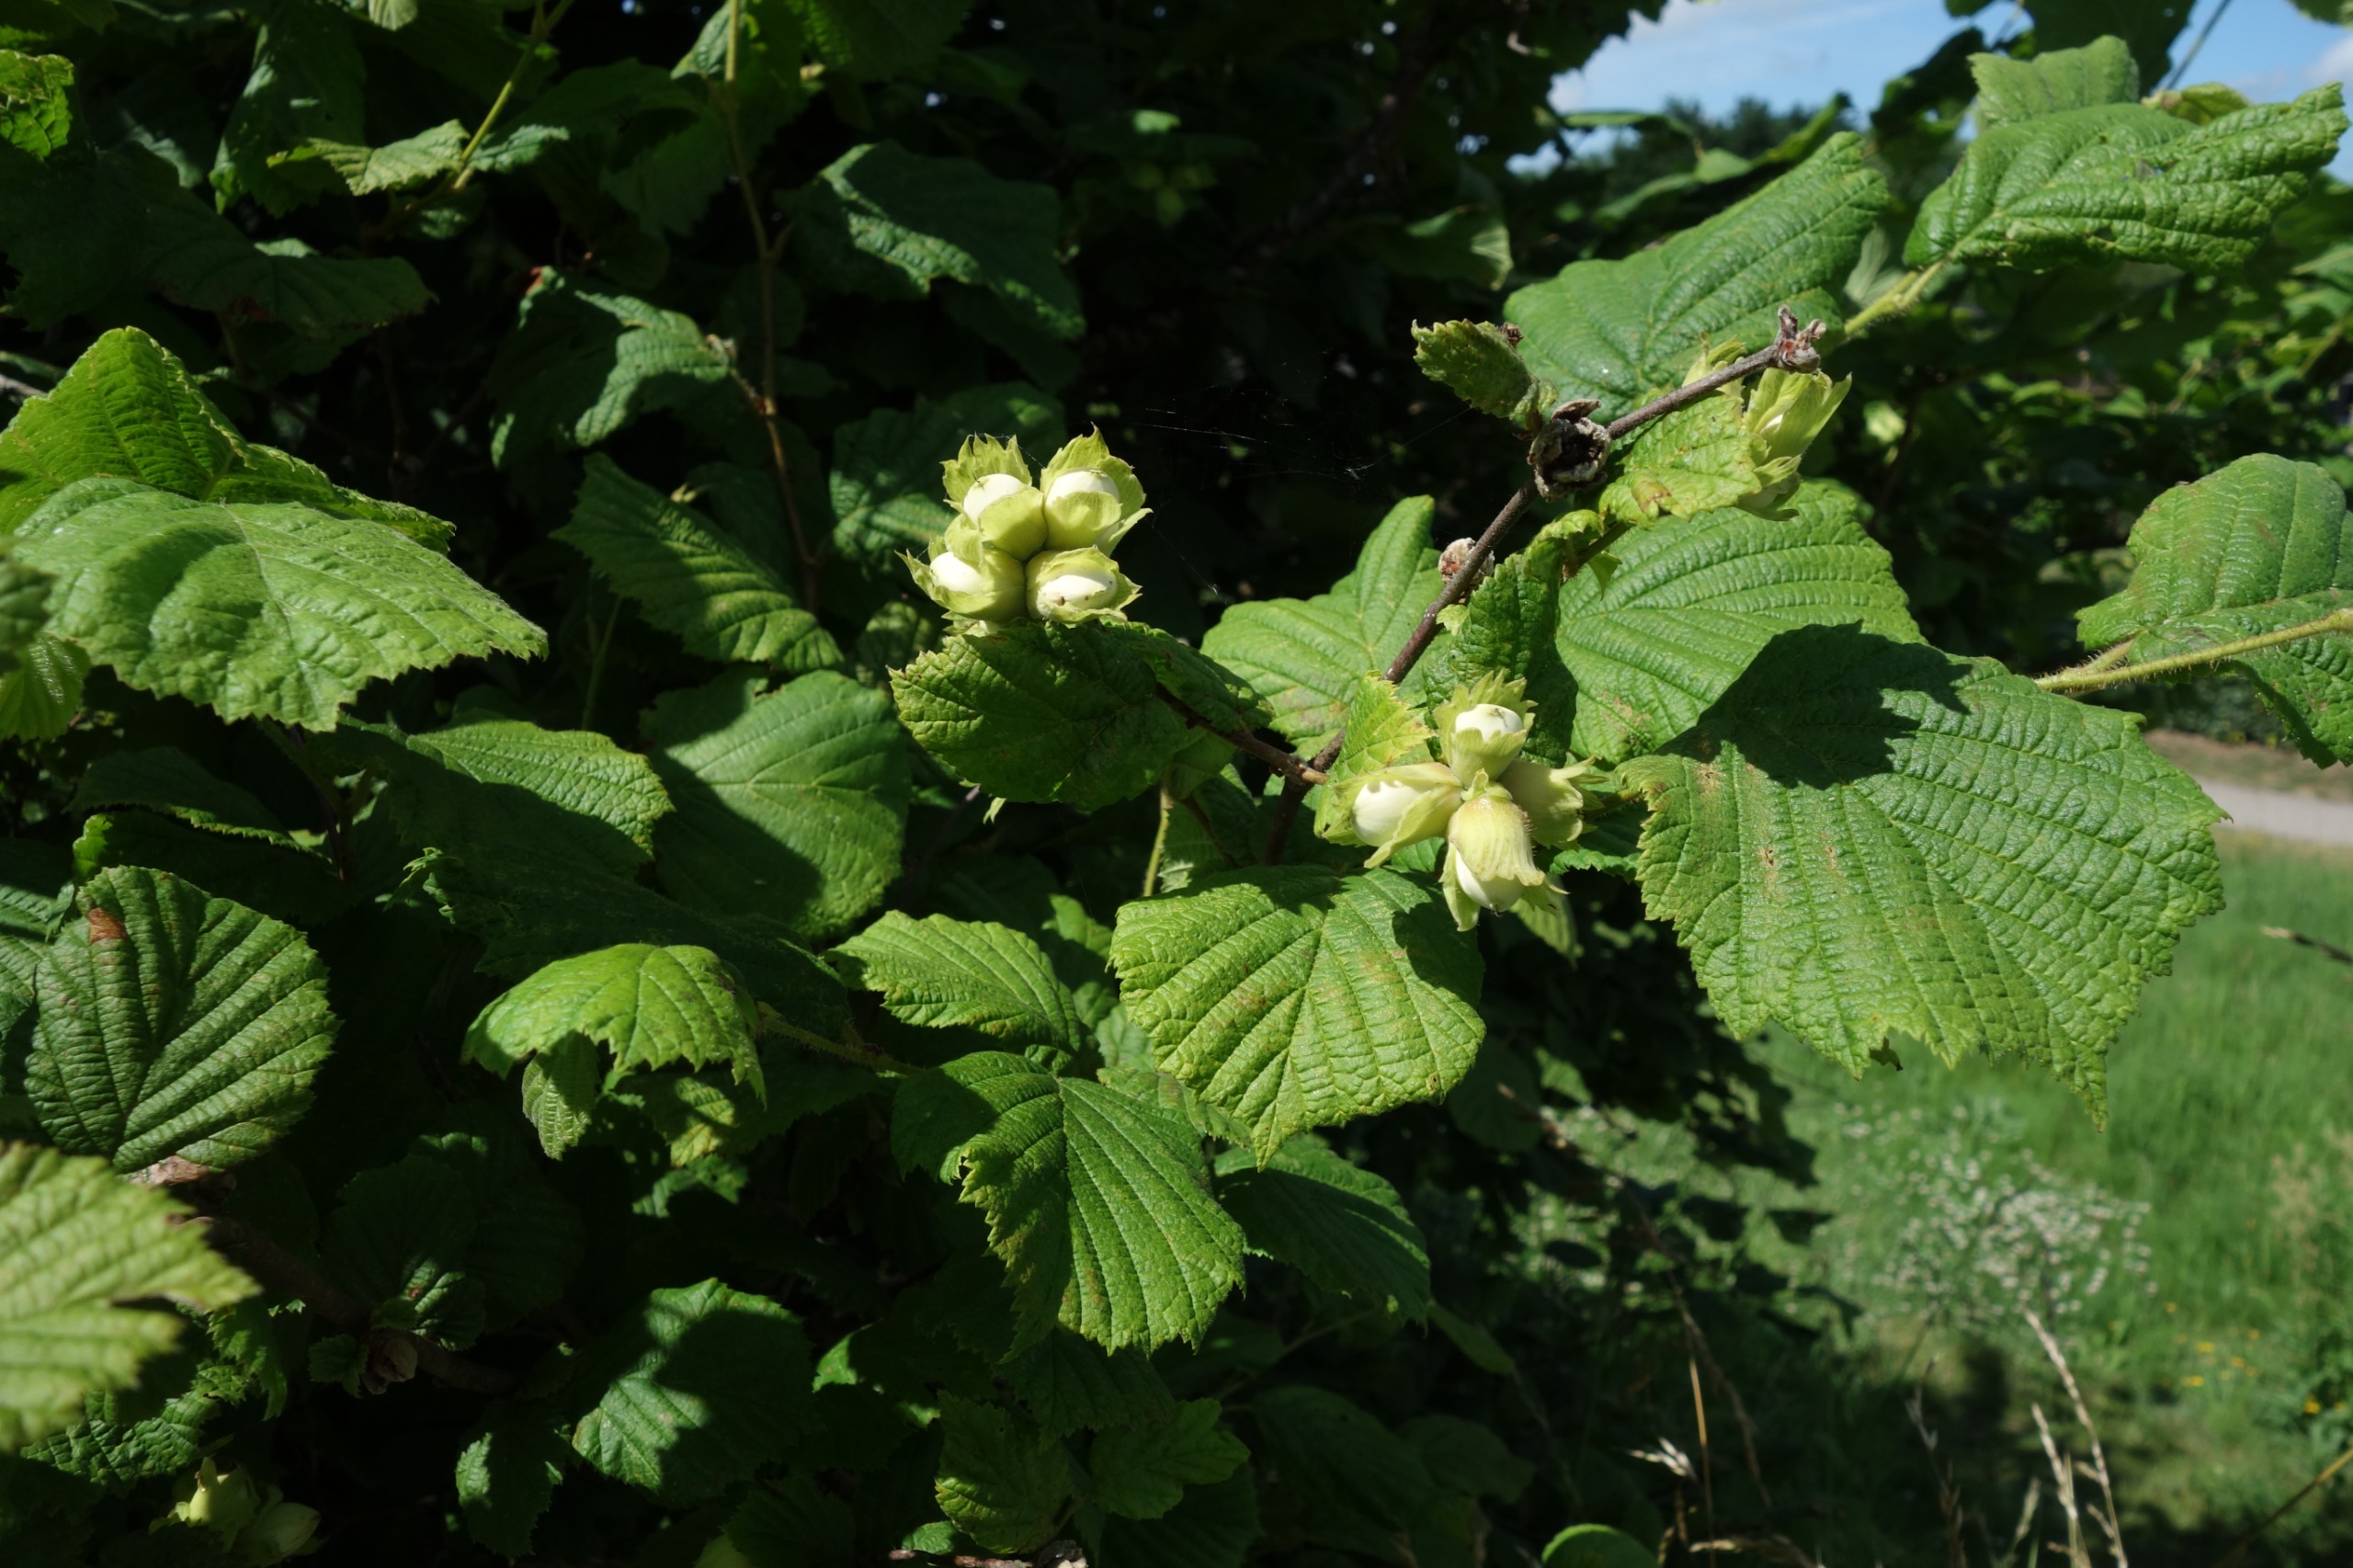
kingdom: Plantae
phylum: Tracheophyta
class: Magnoliopsida
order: Fagales
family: Betulaceae
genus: Corylus
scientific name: Corylus avellana
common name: Hassel
